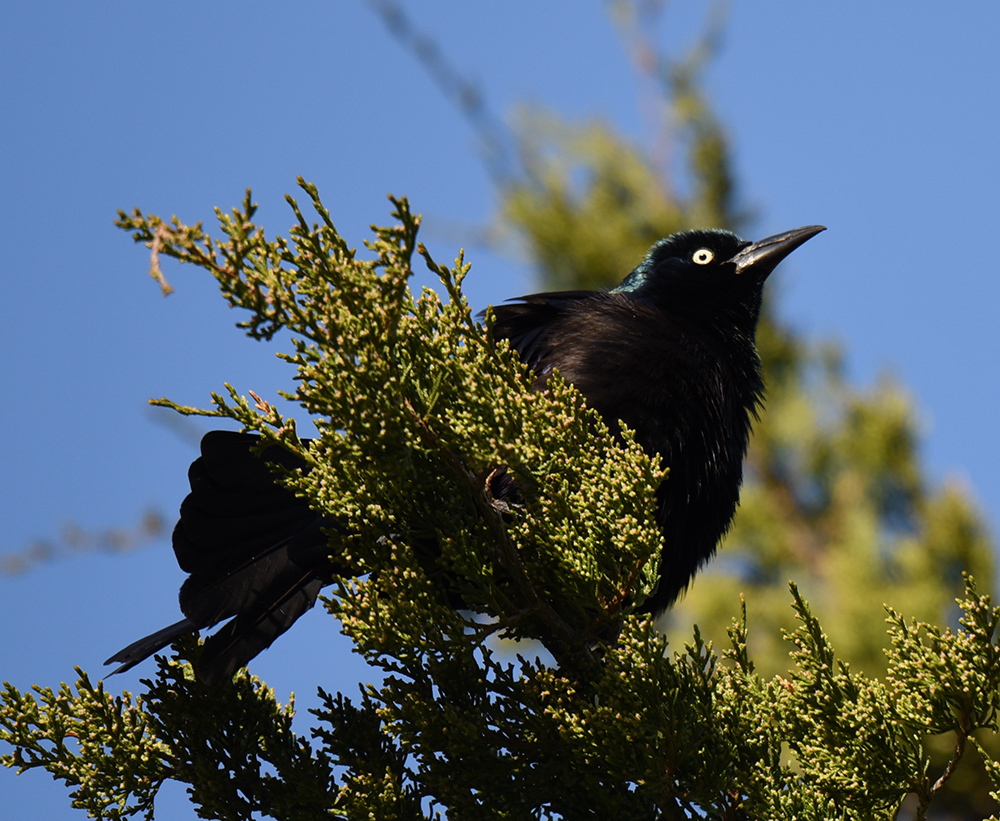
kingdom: Animalia
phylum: Chordata
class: Aves
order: Passeriformes
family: Icteridae
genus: Quiscalus
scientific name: Quiscalus quiscula
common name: Common grackle
